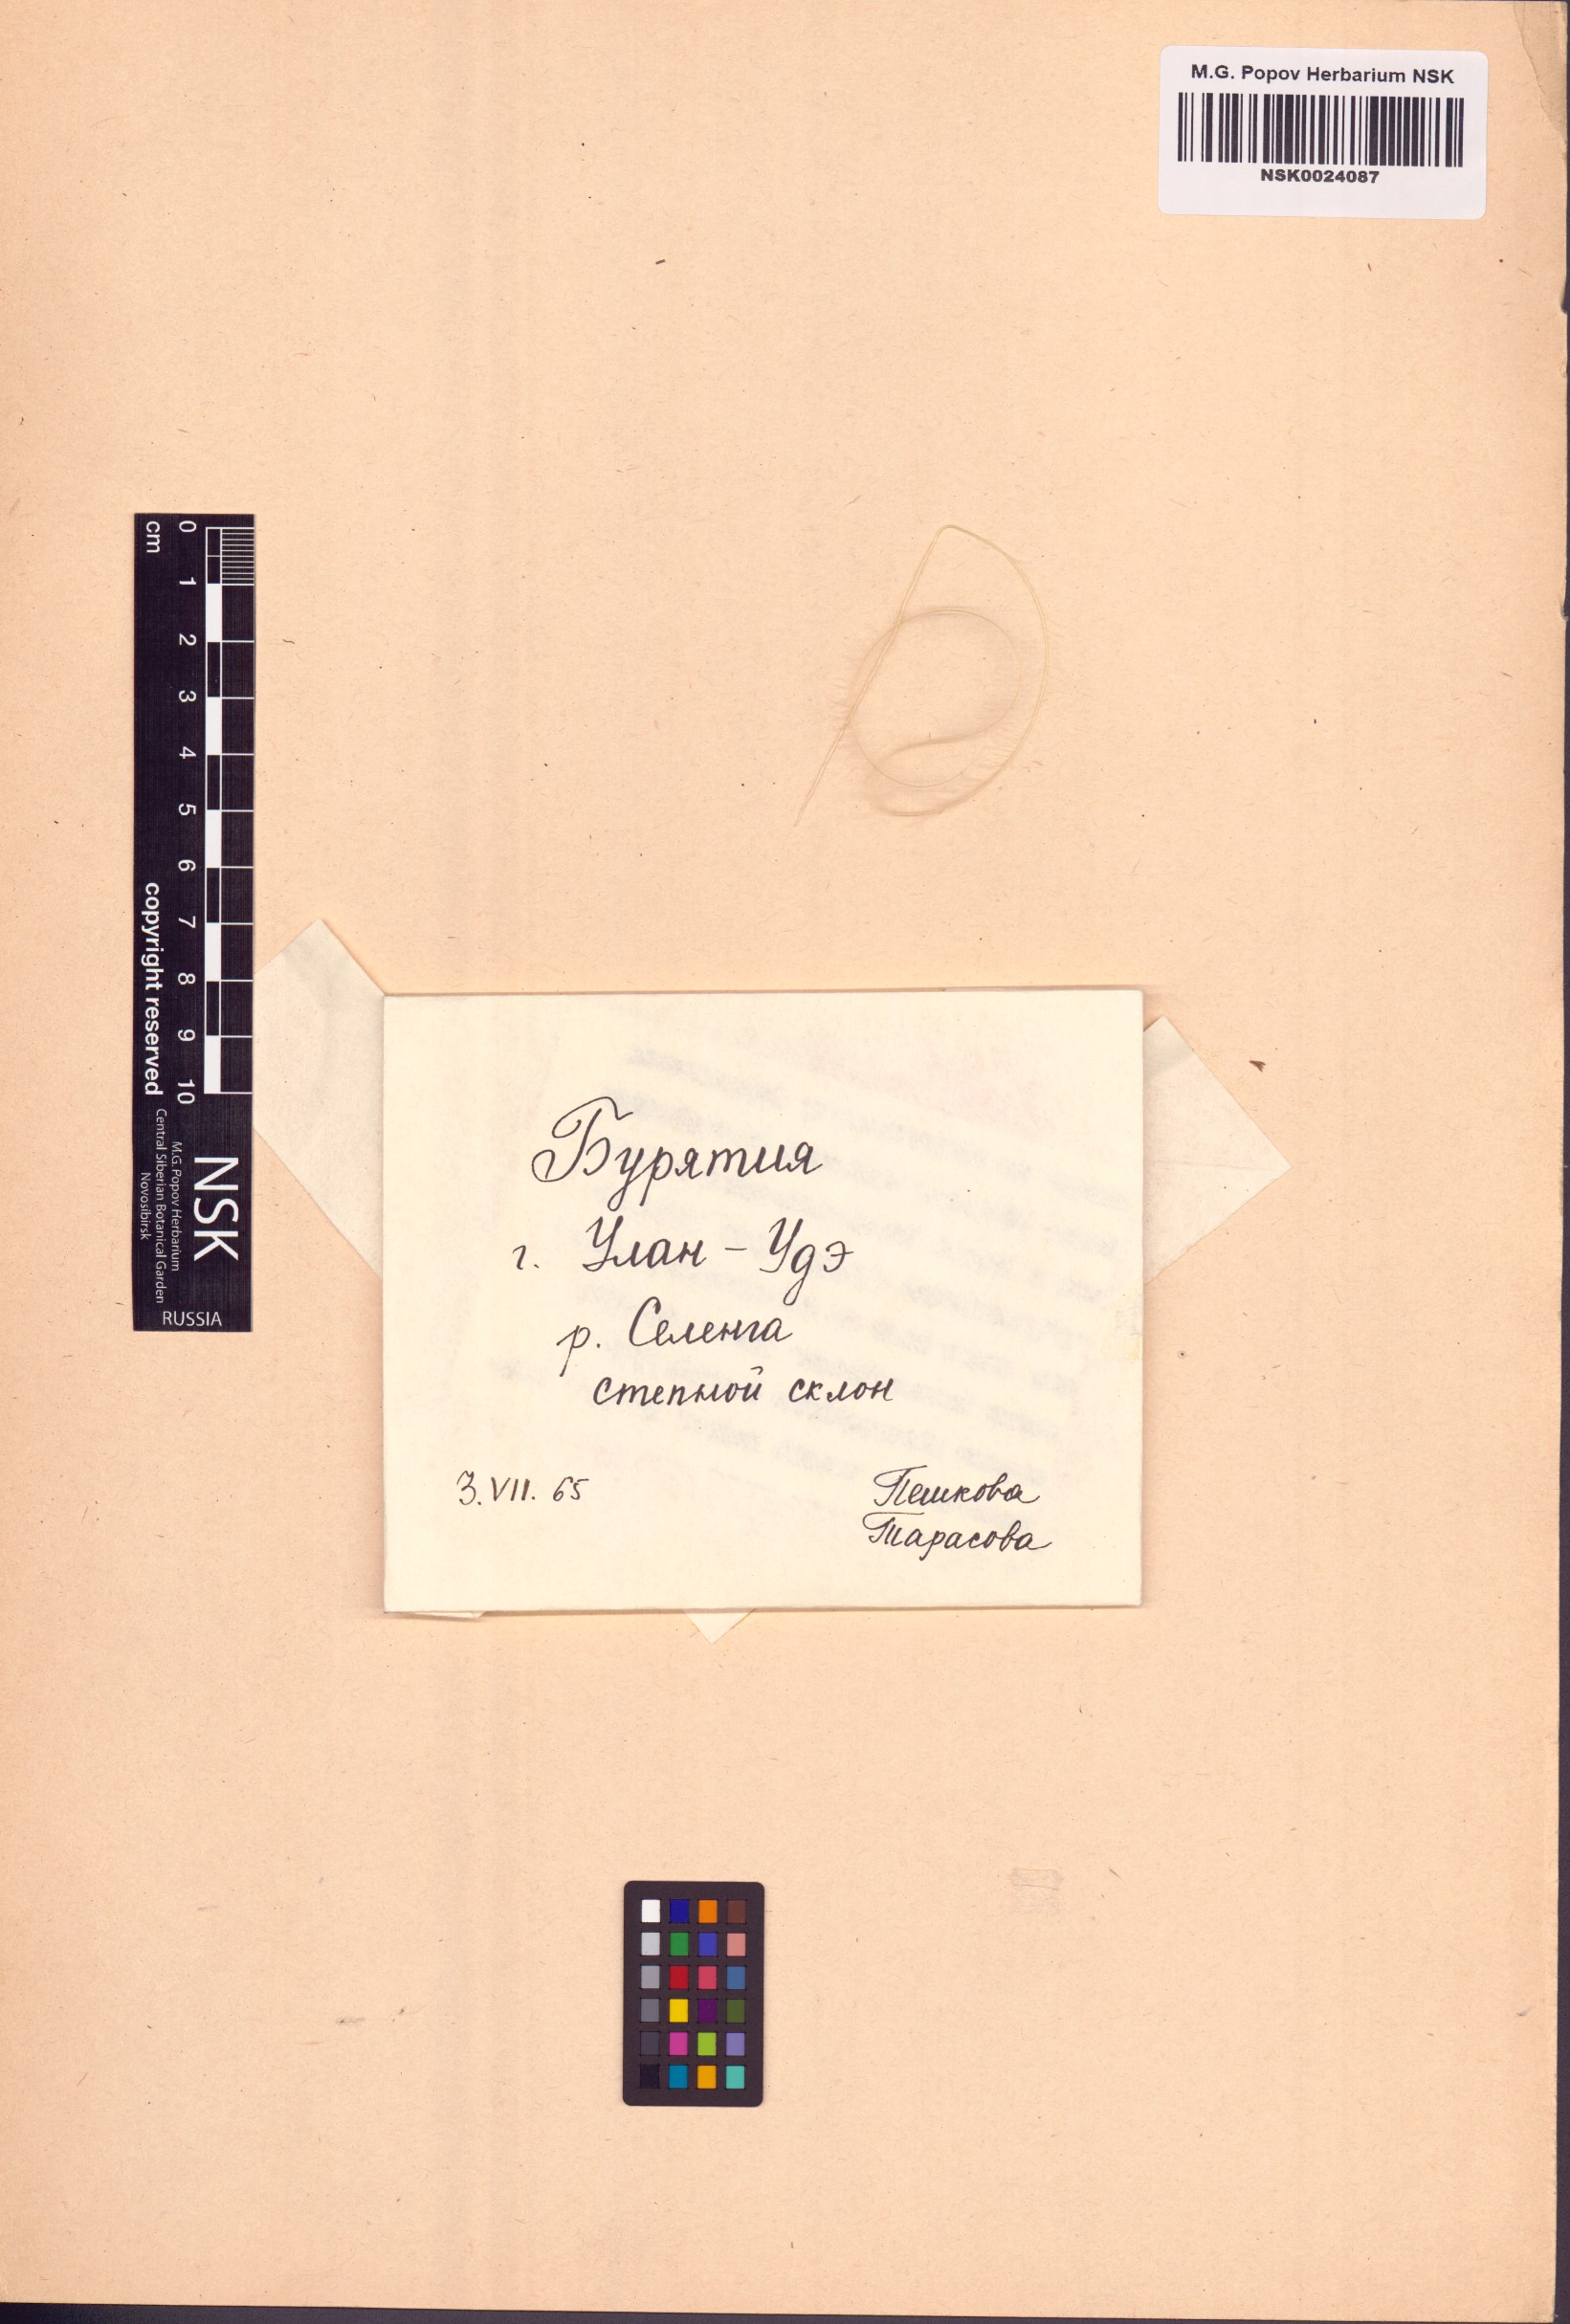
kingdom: Plantae
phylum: Tracheophyta
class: Liliopsida
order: Poales
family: Poaceae
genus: Stipa
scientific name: Stipa pennata
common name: European feather grass
